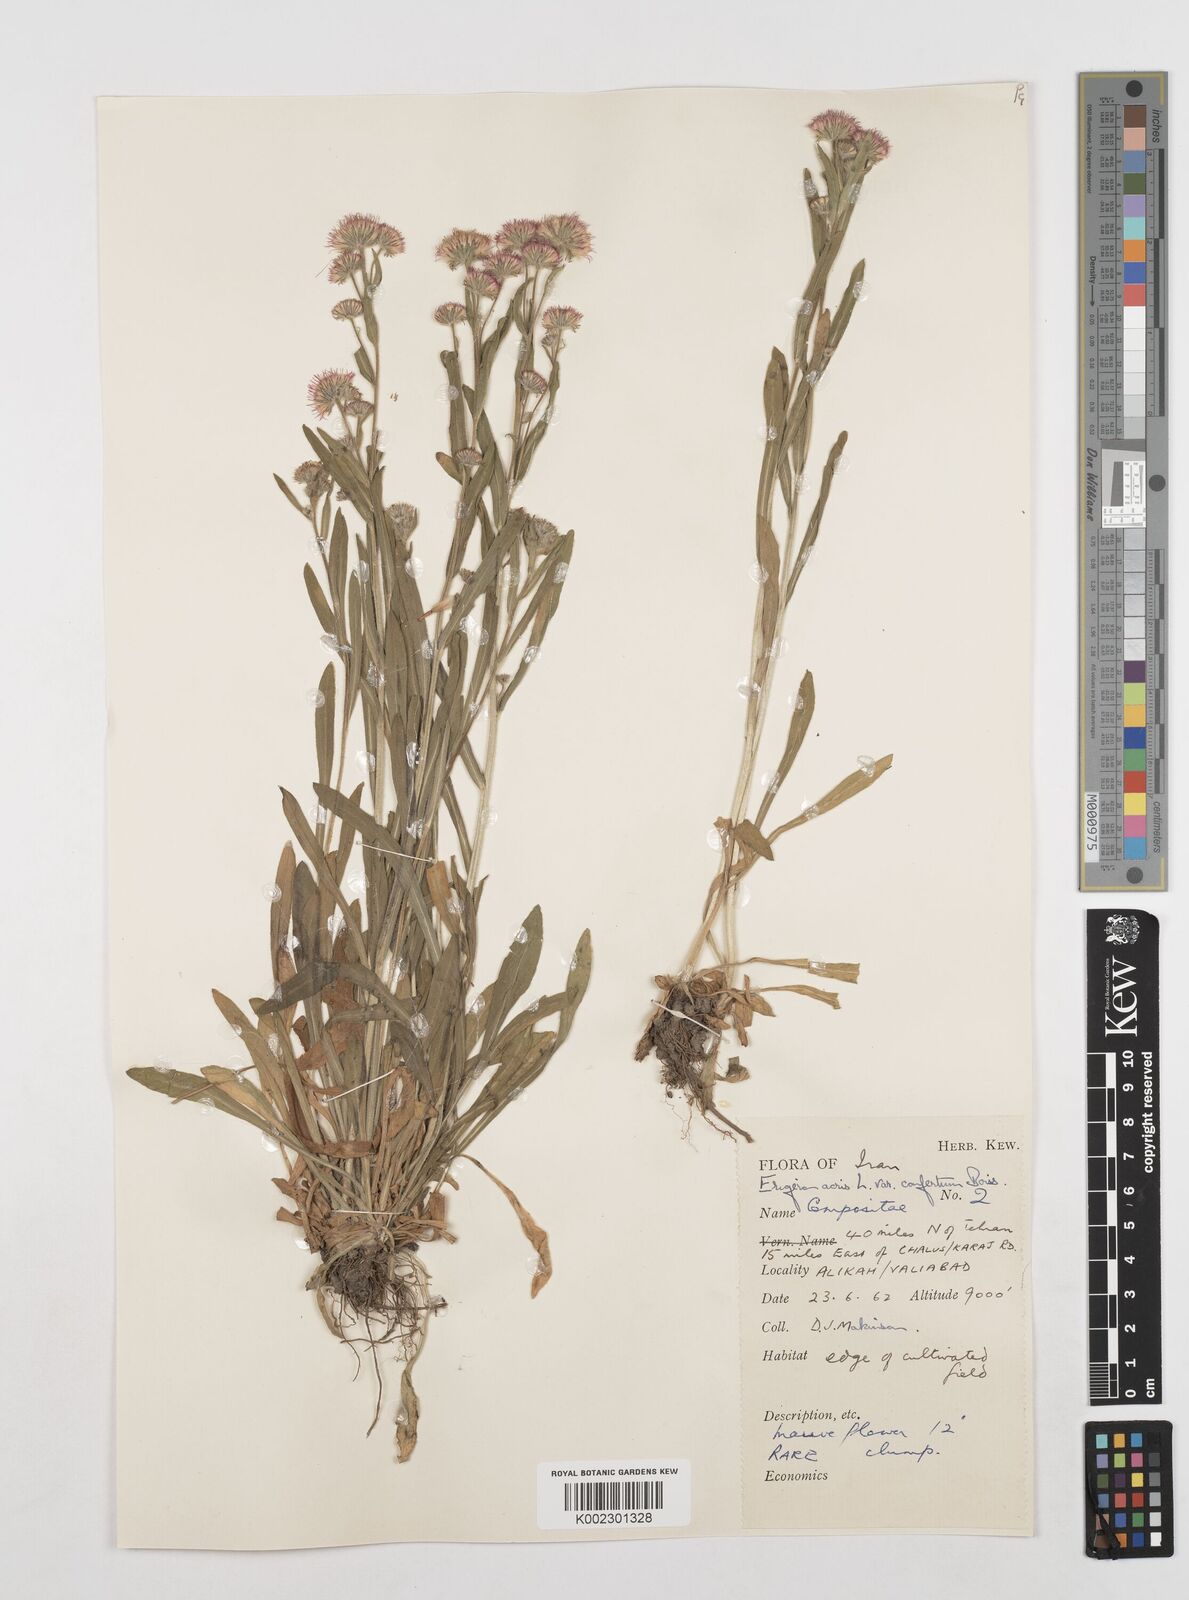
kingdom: Plantae
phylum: Tracheophyta
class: Magnoliopsida
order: Asterales
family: Asteraceae
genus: Erigeron
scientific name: Erigeron acris
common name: Blue fleabane
